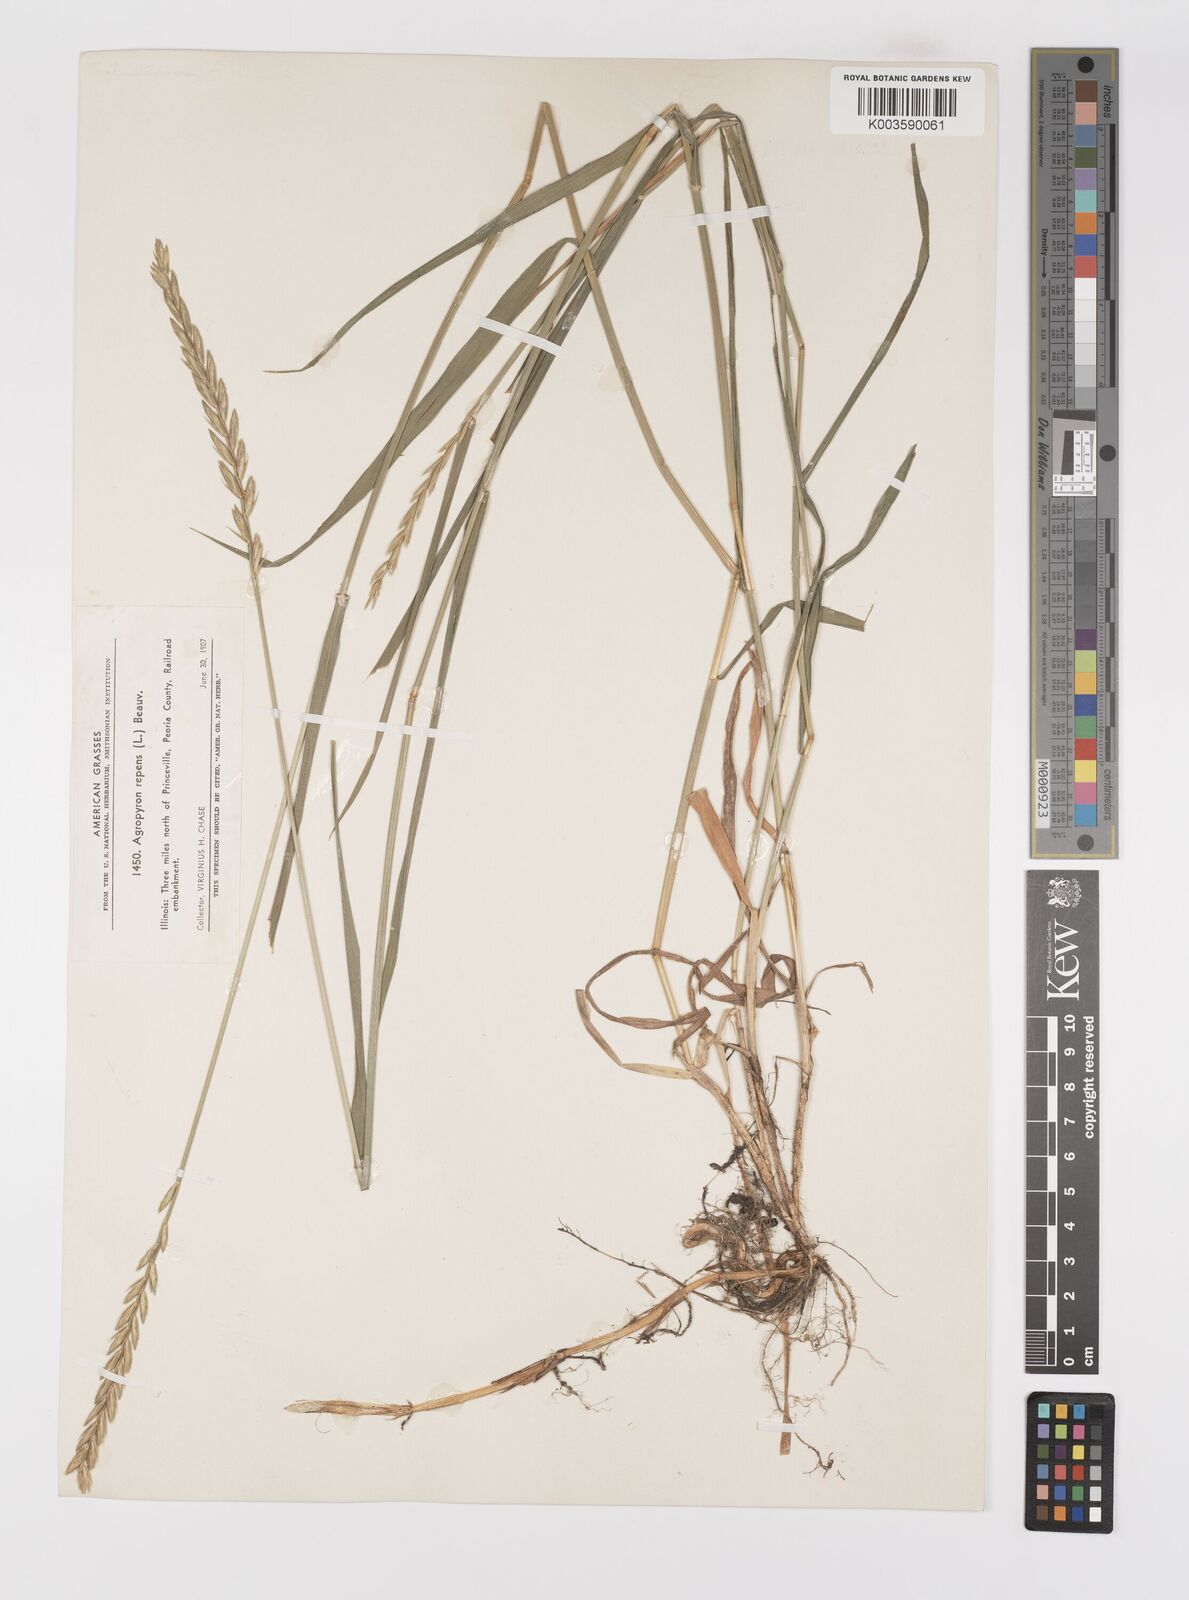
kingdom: Plantae
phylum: Tracheophyta
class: Liliopsida
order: Poales
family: Poaceae
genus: Elymus
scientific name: Elymus repens
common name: Quackgrass
